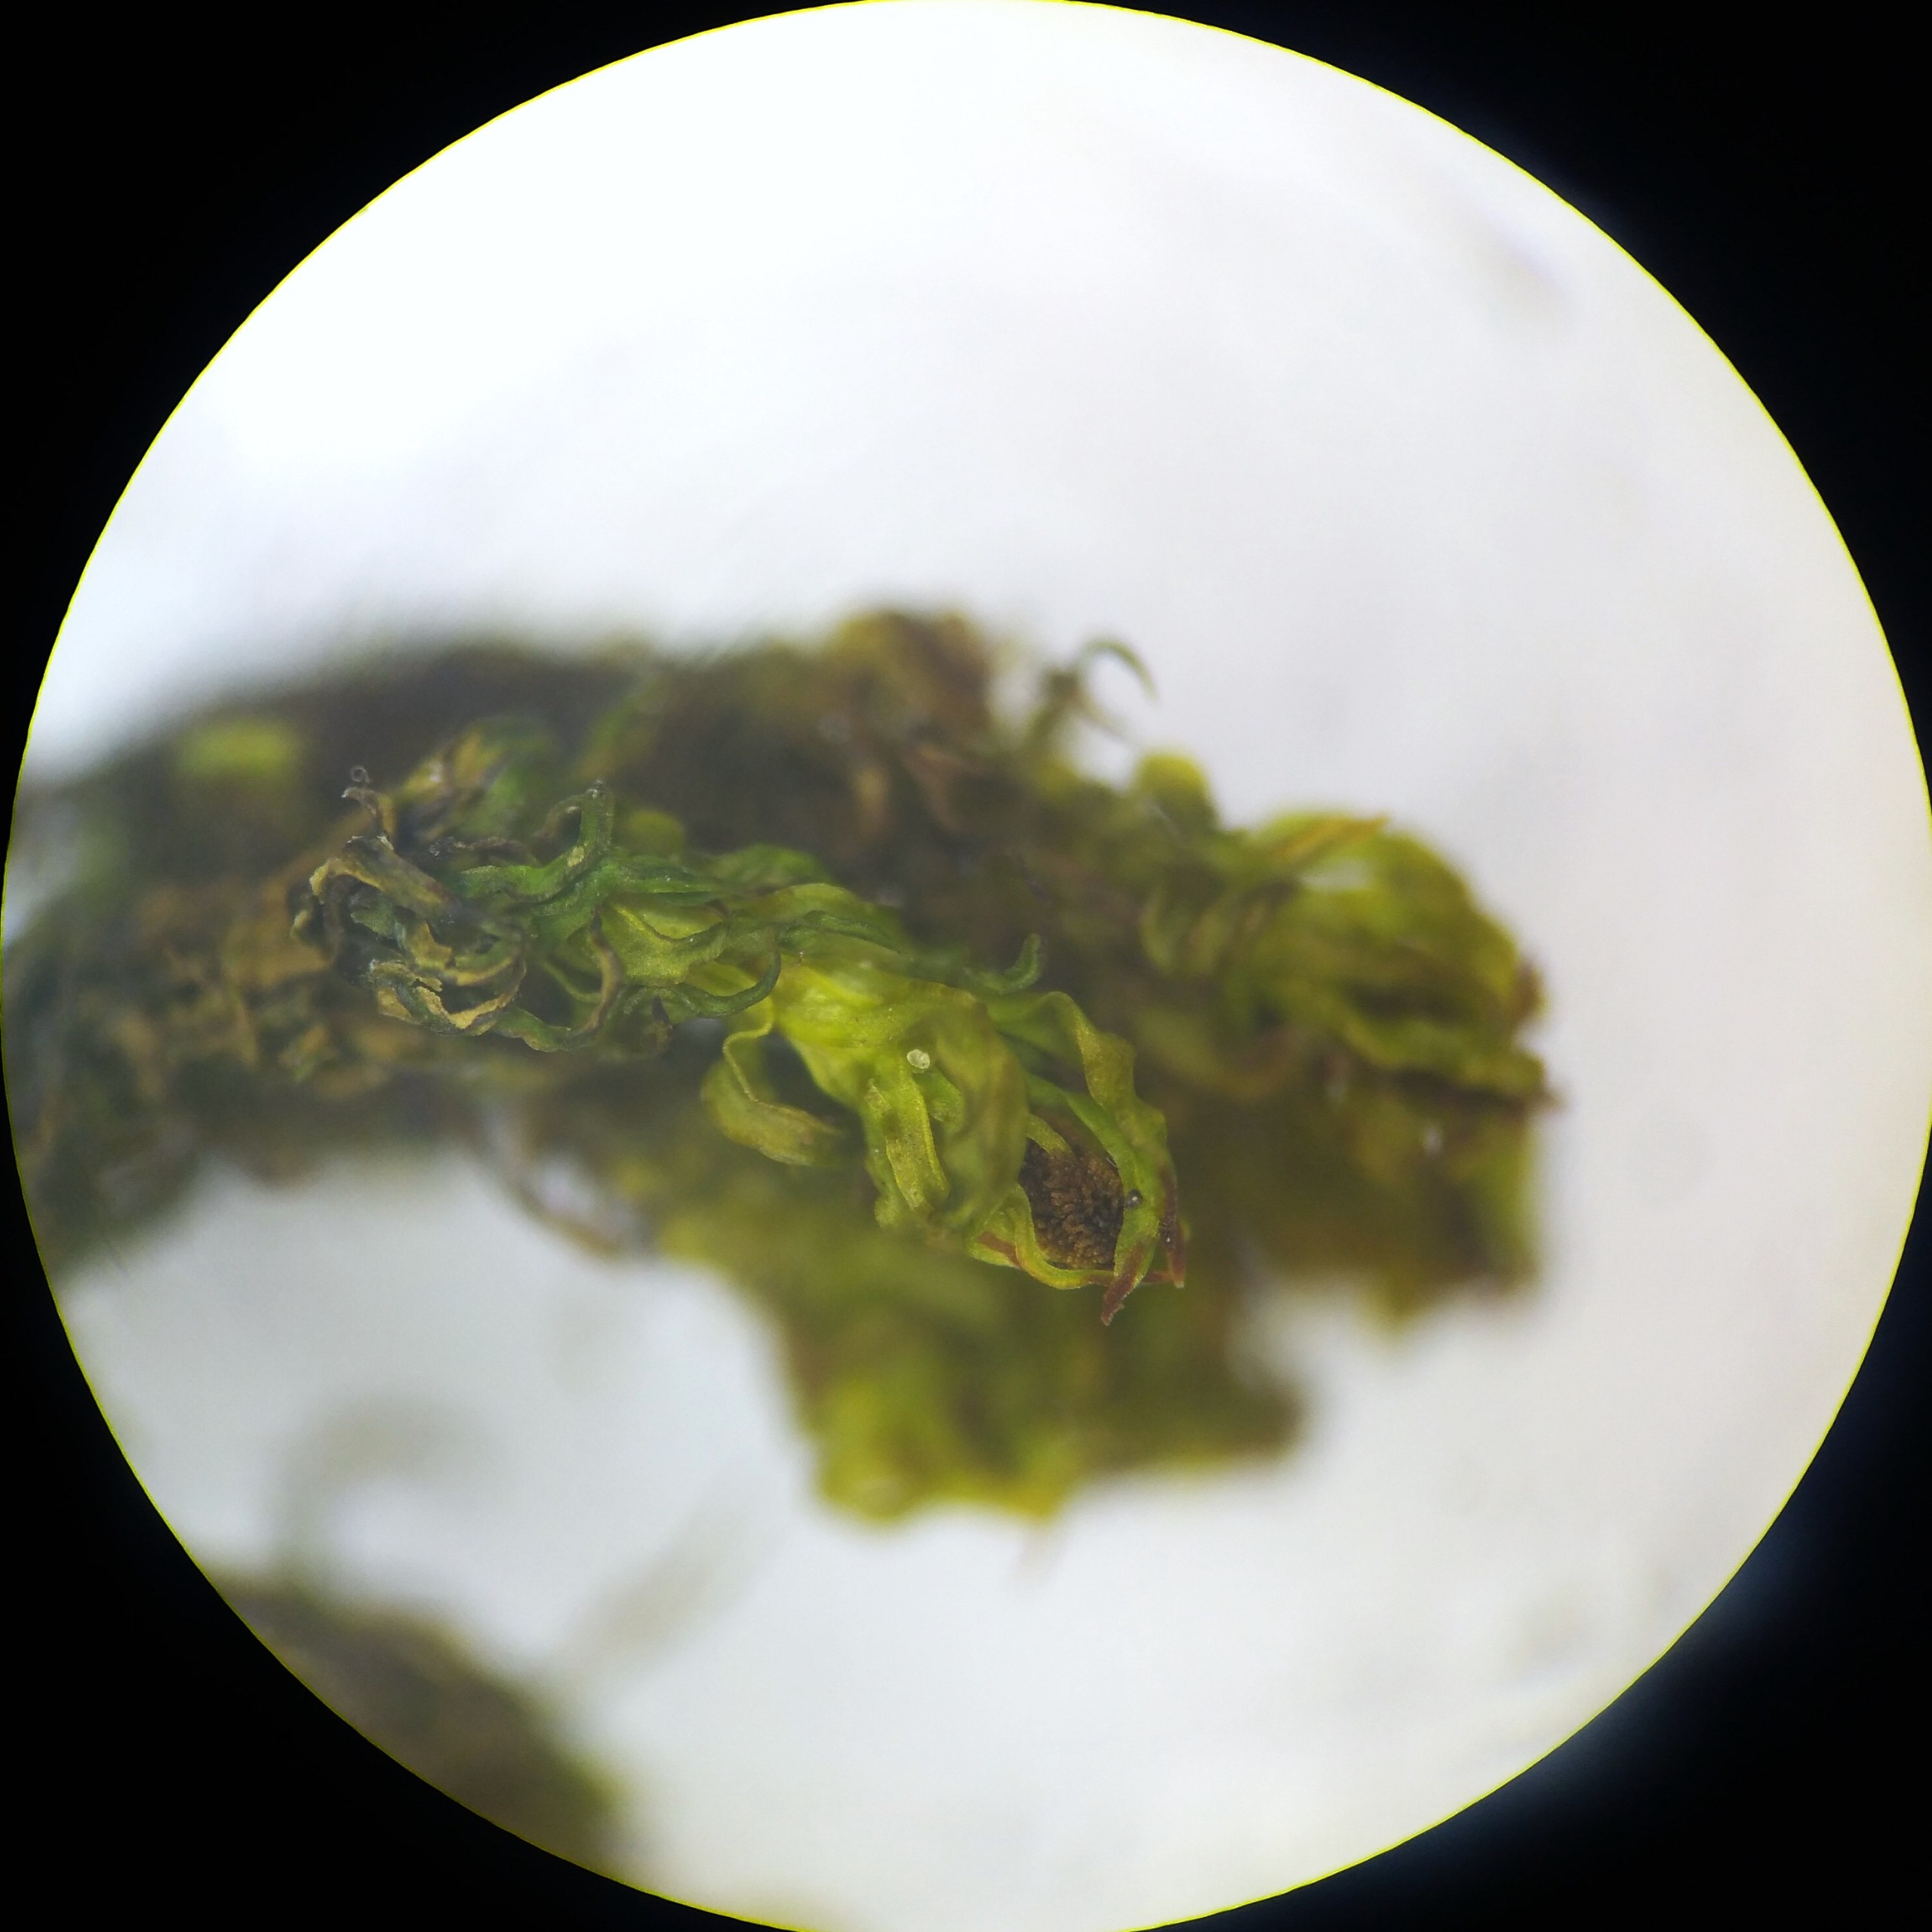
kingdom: Plantae
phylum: Bryophyta
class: Bryopsida
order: Orthotrichales
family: Orthotrichaceae
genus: Plenogemma
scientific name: Plenogemma phyllantha
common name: Stor låddenhætte
